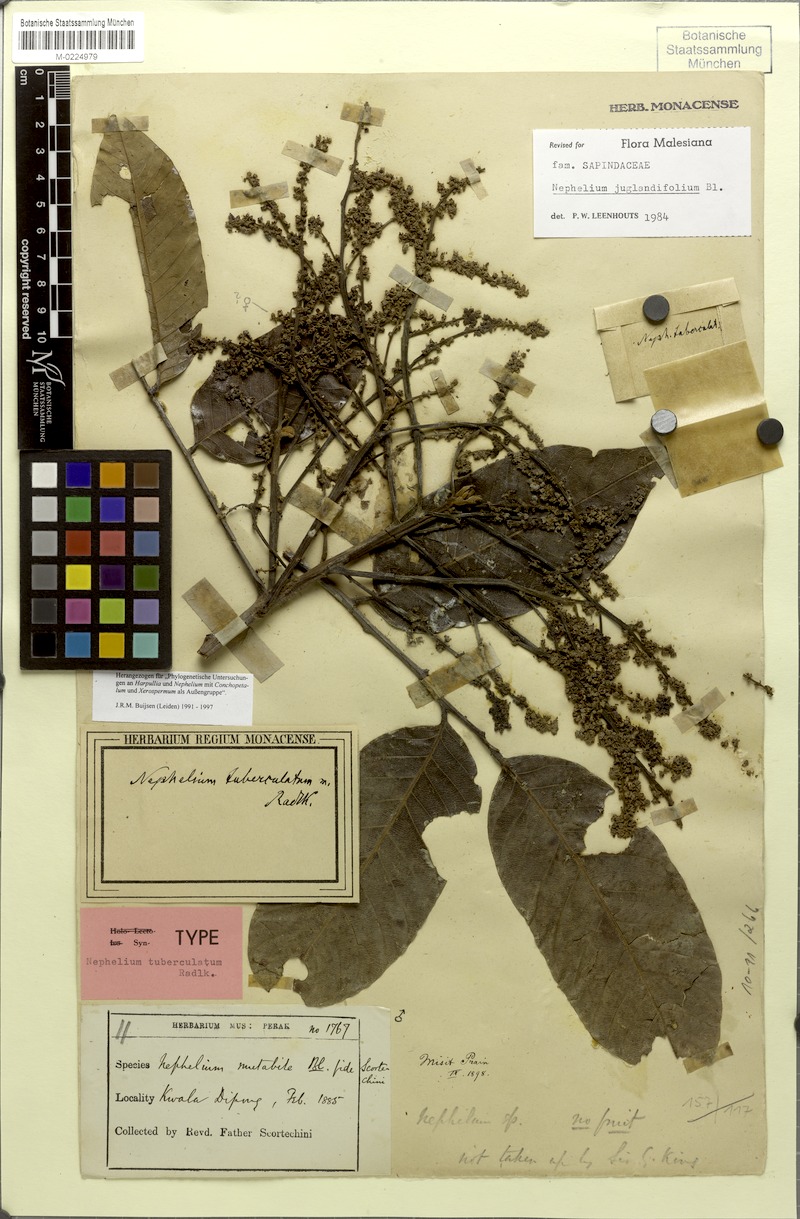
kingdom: Plantae
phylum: Tracheophyta
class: Magnoliopsida
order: Sapindales
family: Sapindaceae
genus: Nephelium
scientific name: Nephelium juglandifolium
